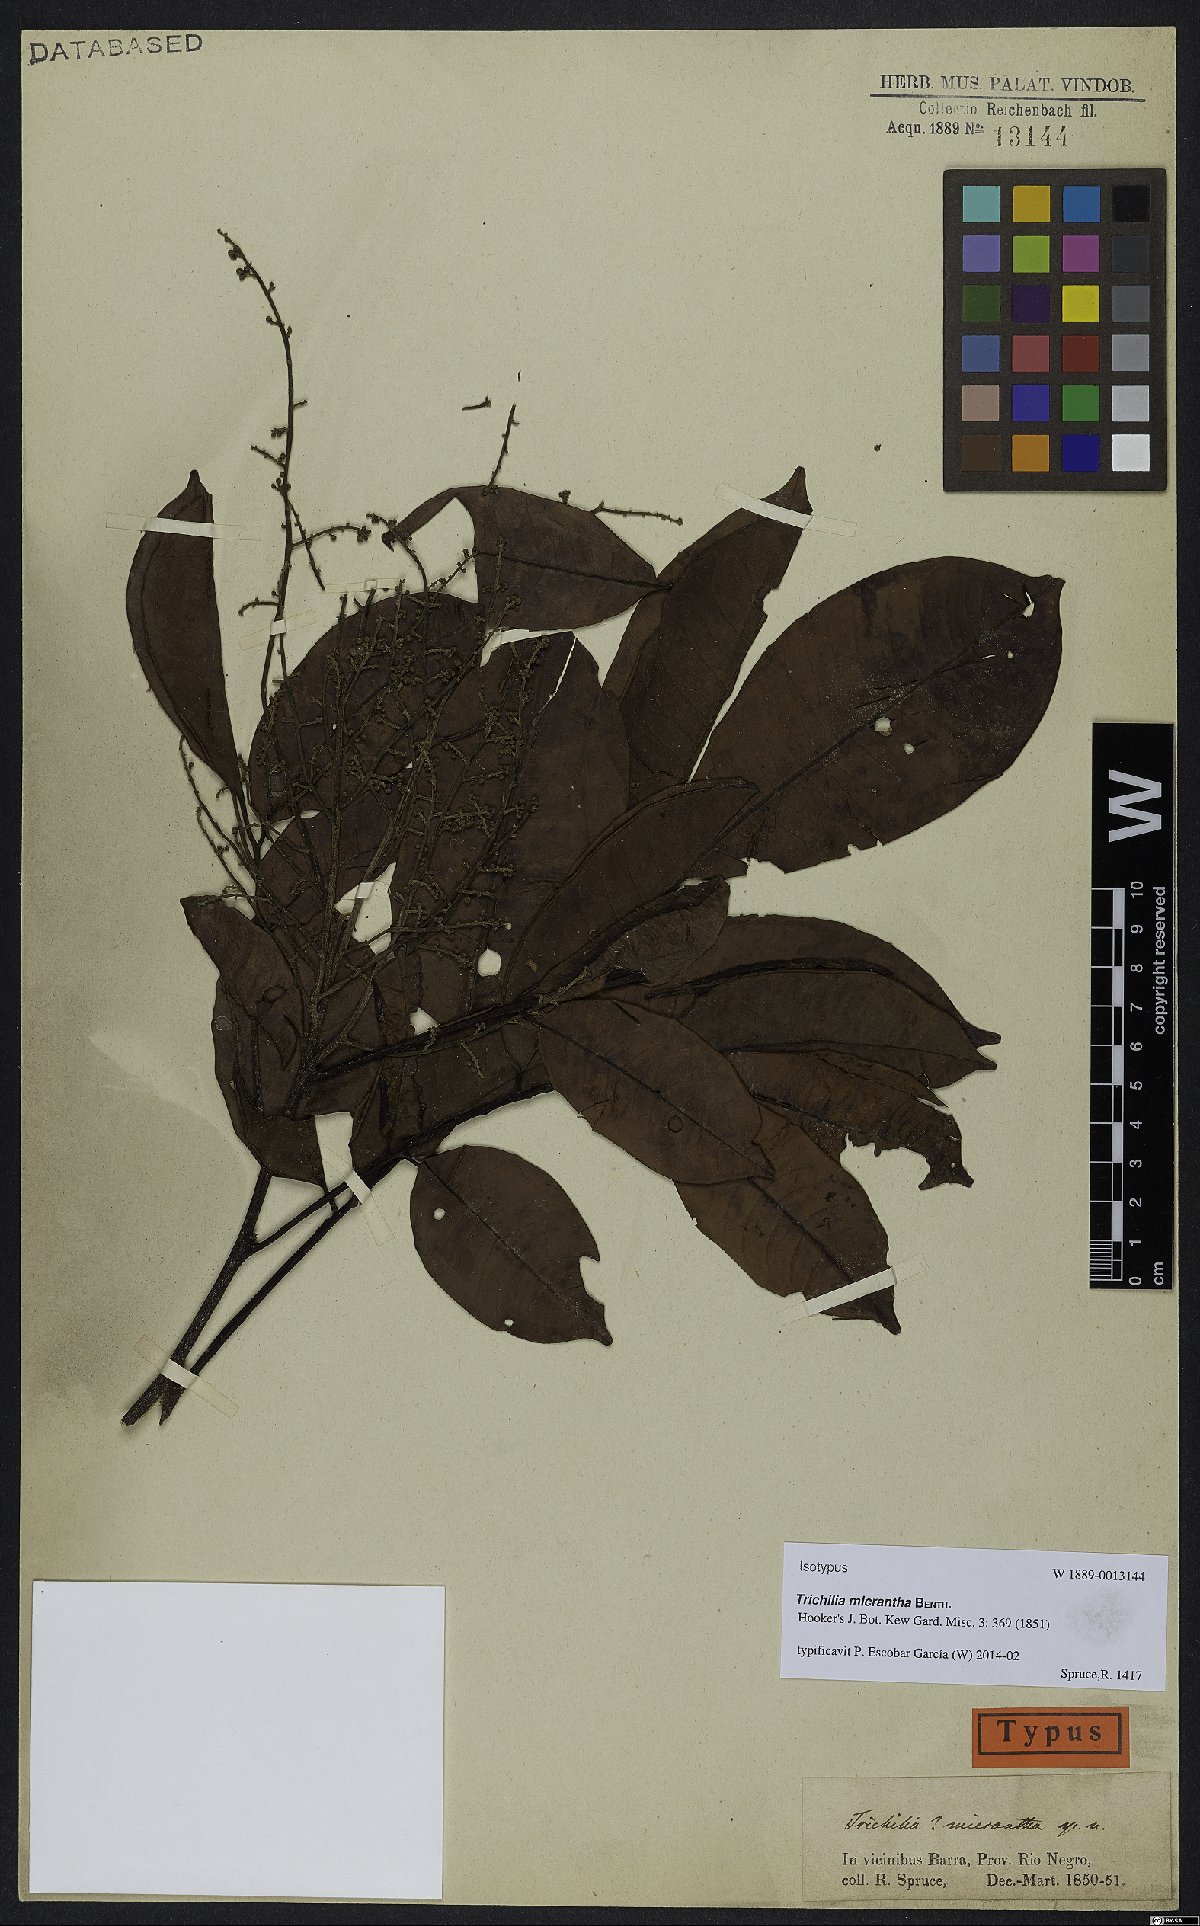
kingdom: Plantae
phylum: Tracheophyta
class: Magnoliopsida
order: Sapindales
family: Meliaceae
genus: Trichilia
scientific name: Trichilia micrantha
